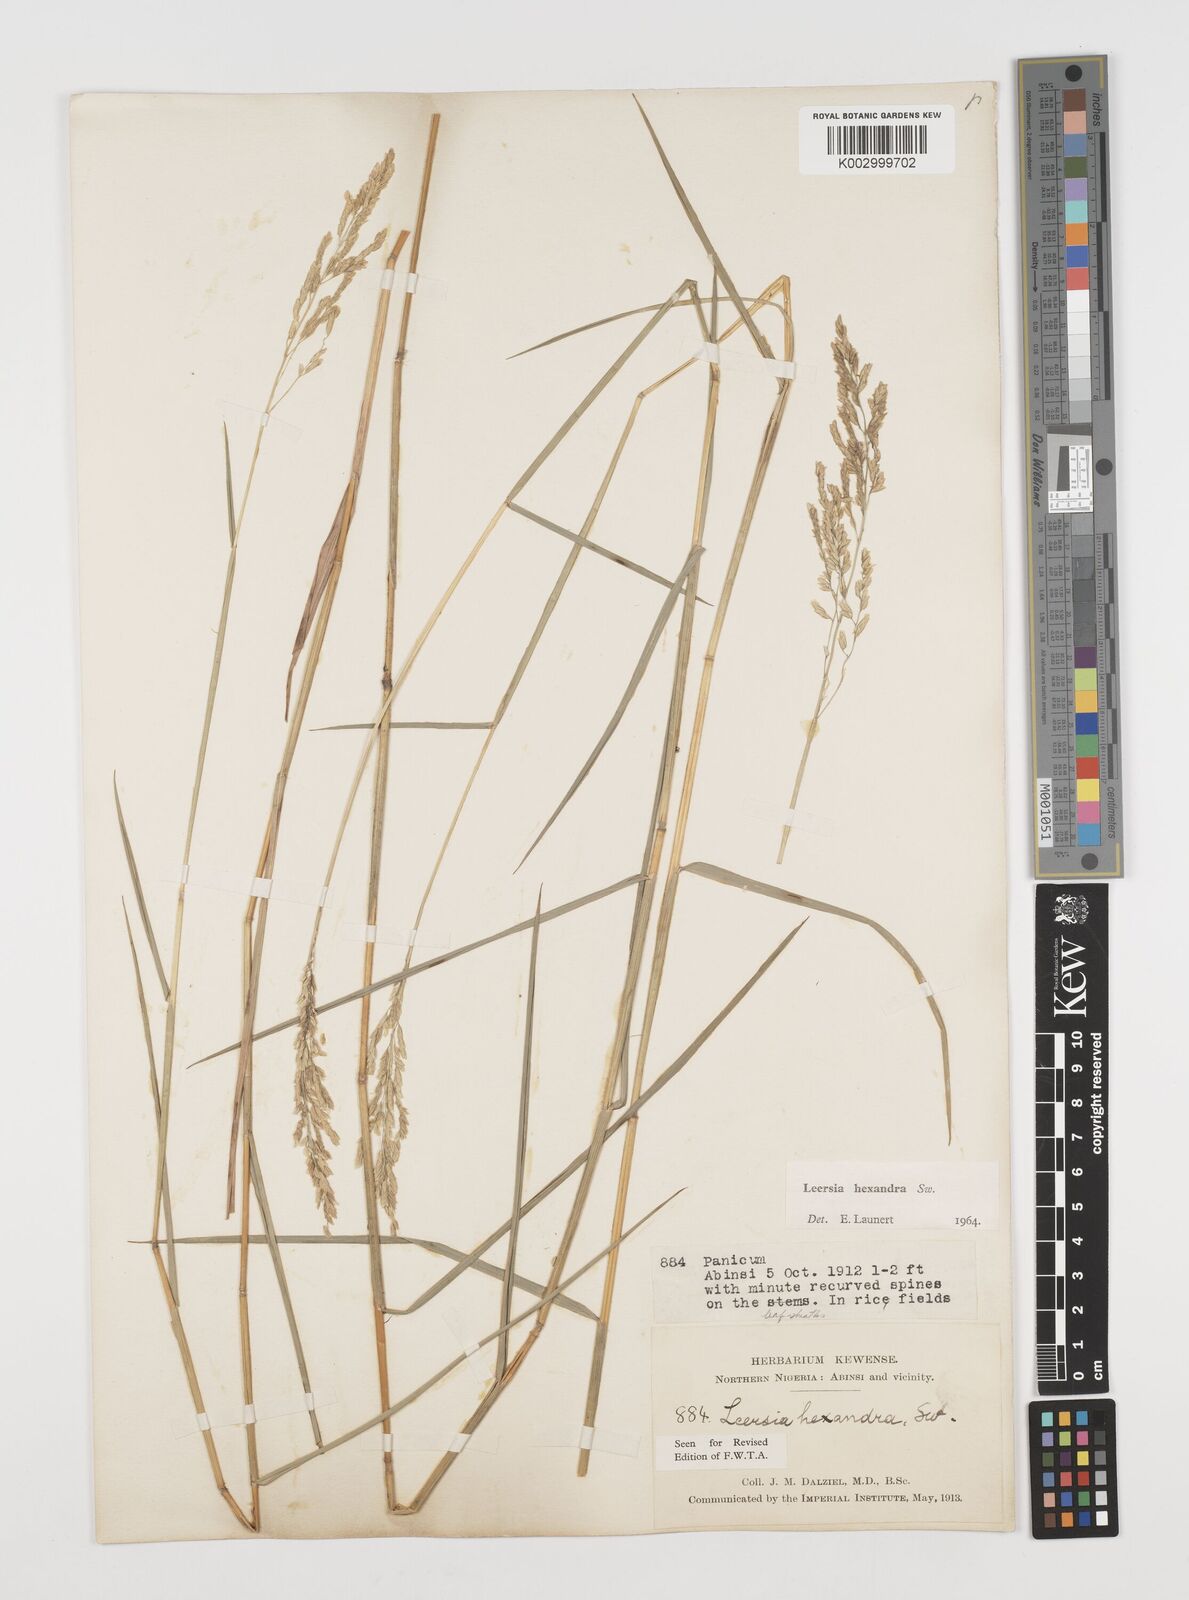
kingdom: Plantae
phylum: Tracheophyta
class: Liliopsida
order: Poales
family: Poaceae
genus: Leersia
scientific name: Leersia hexandra
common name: Southern cut grass
